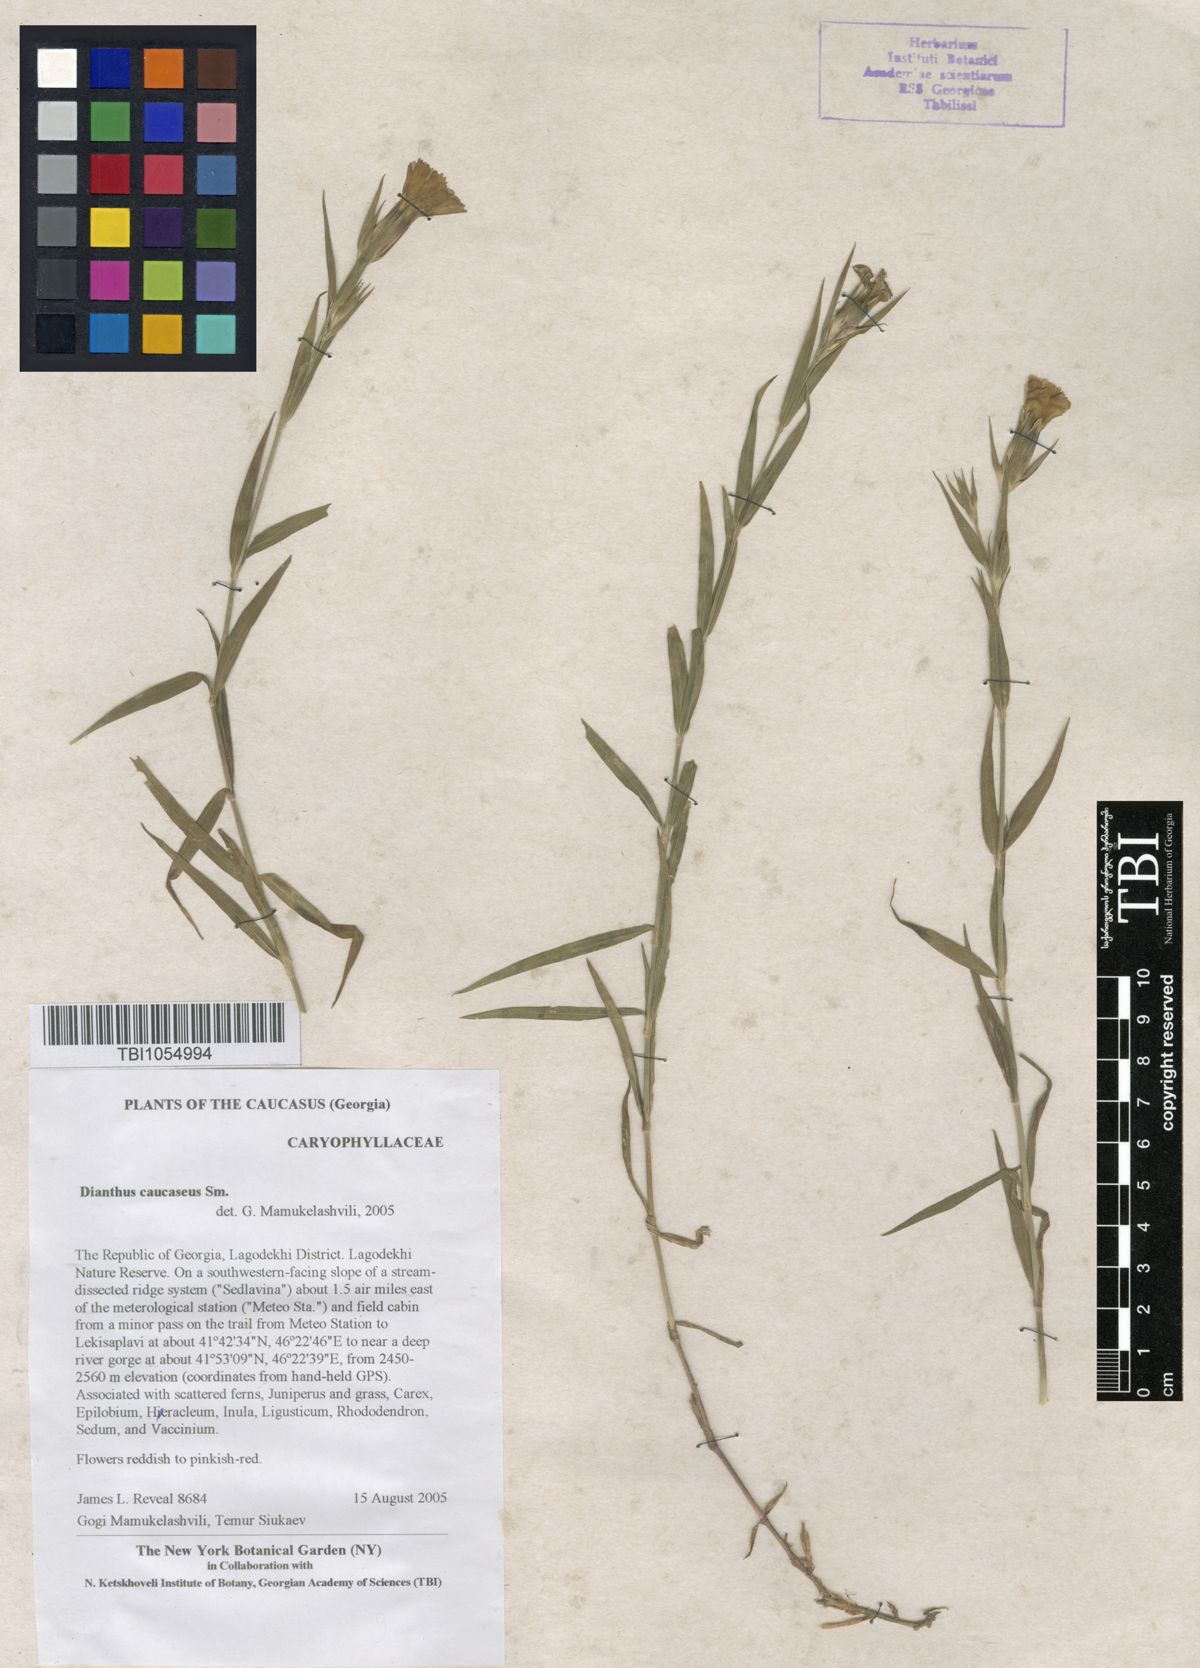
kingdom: Plantae
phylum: Tracheophyta
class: Magnoliopsida
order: Caryophyllales
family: Caryophyllaceae
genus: Dianthus
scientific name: Dianthus caucaseus
